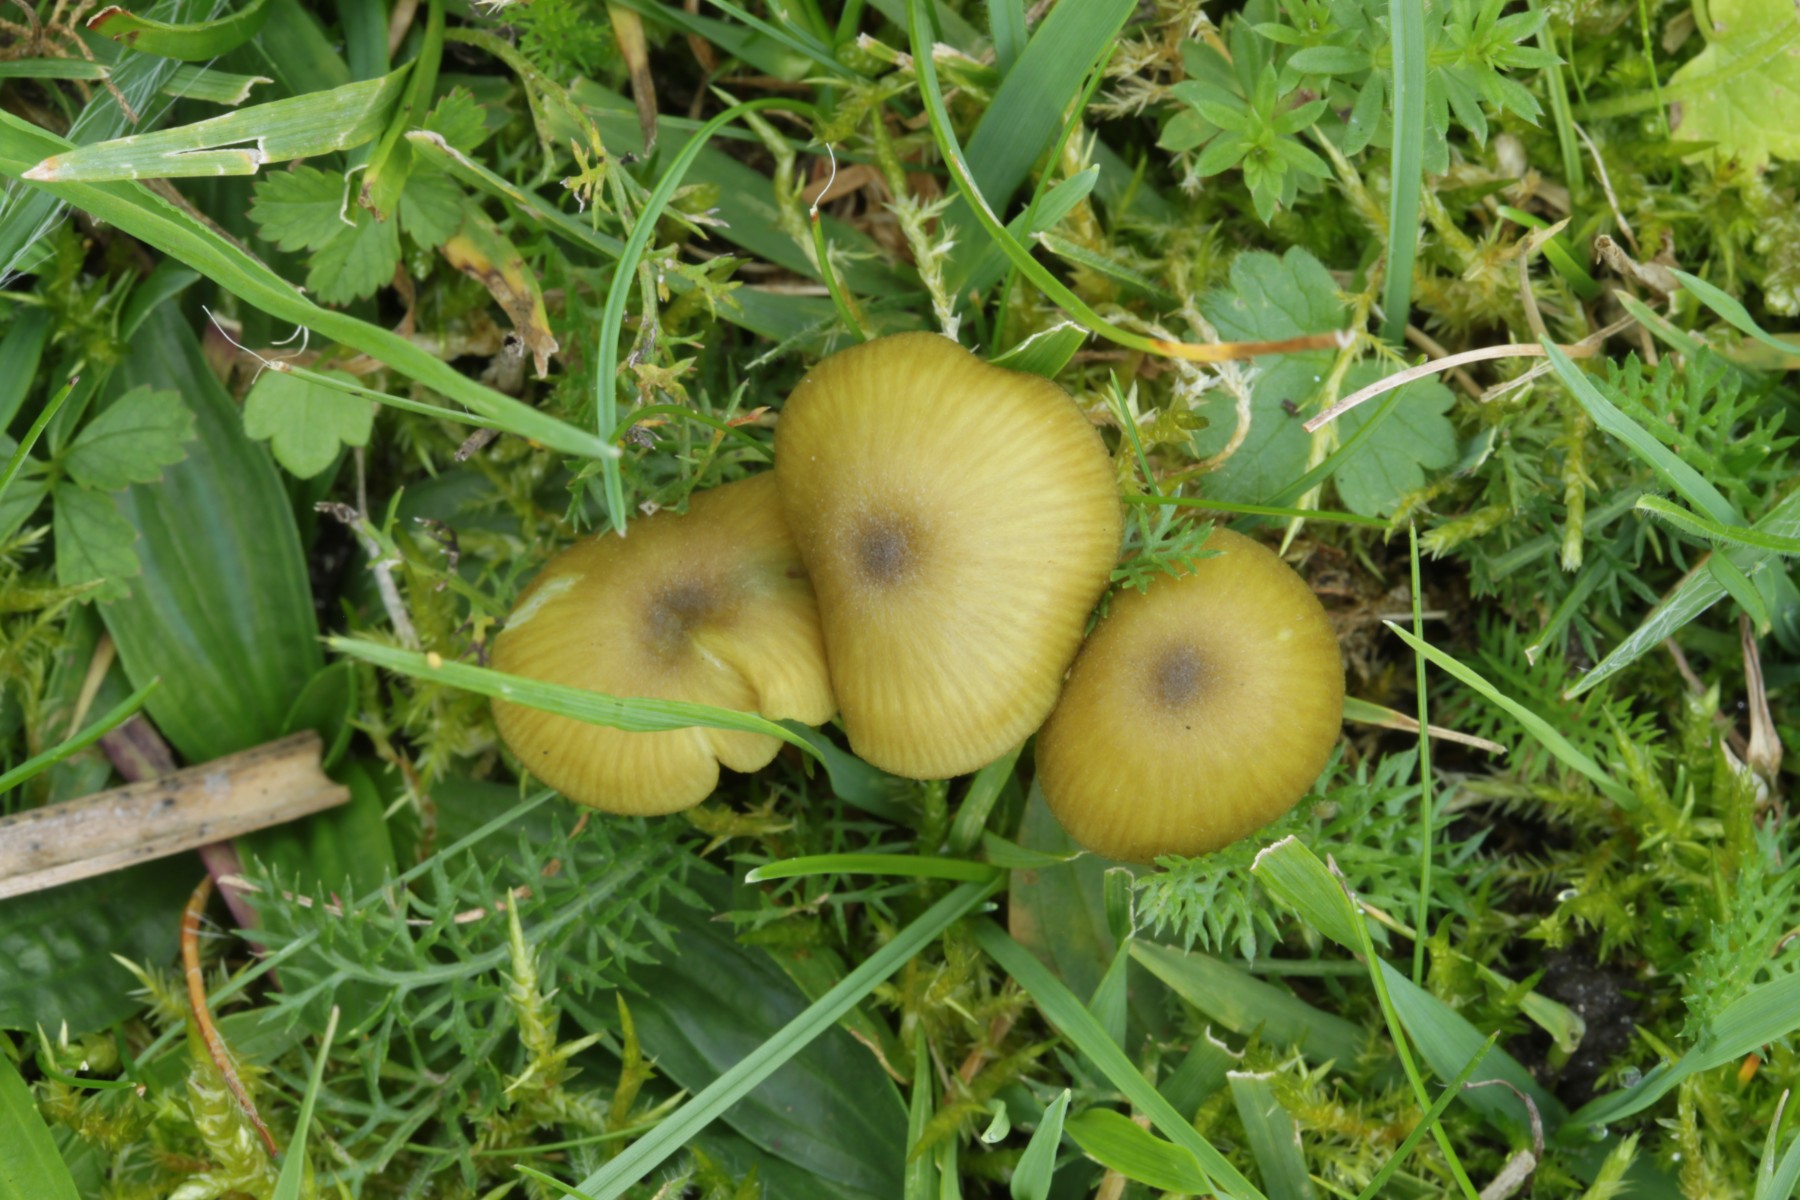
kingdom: Fungi
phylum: Basidiomycota
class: Agaricomycetes
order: Agaricales
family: Entolomataceae
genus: Entoloma
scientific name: Entoloma verae
